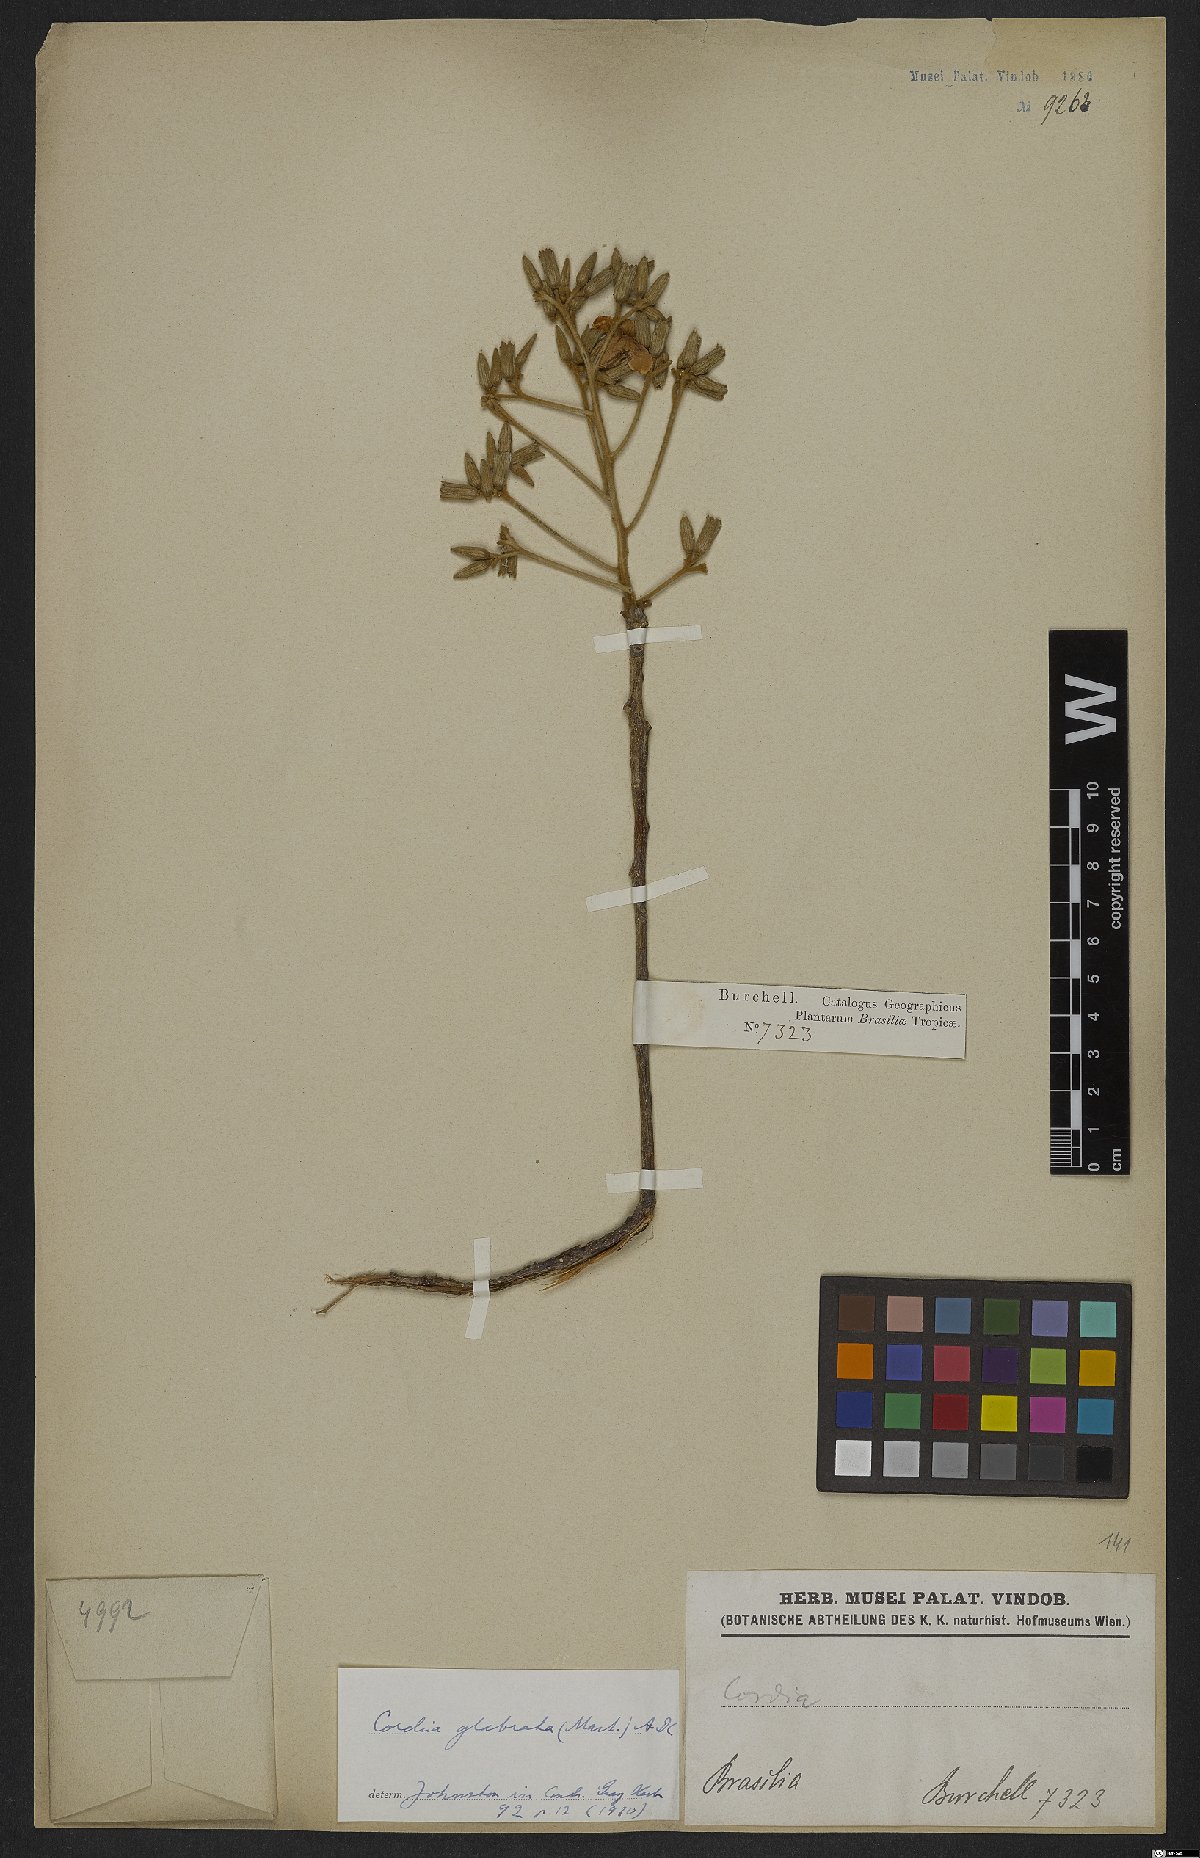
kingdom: Plantae
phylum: Tracheophyta
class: Magnoliopsida
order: Boraginales
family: Cordiaceae
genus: Cordia
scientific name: Cordia glabrata
